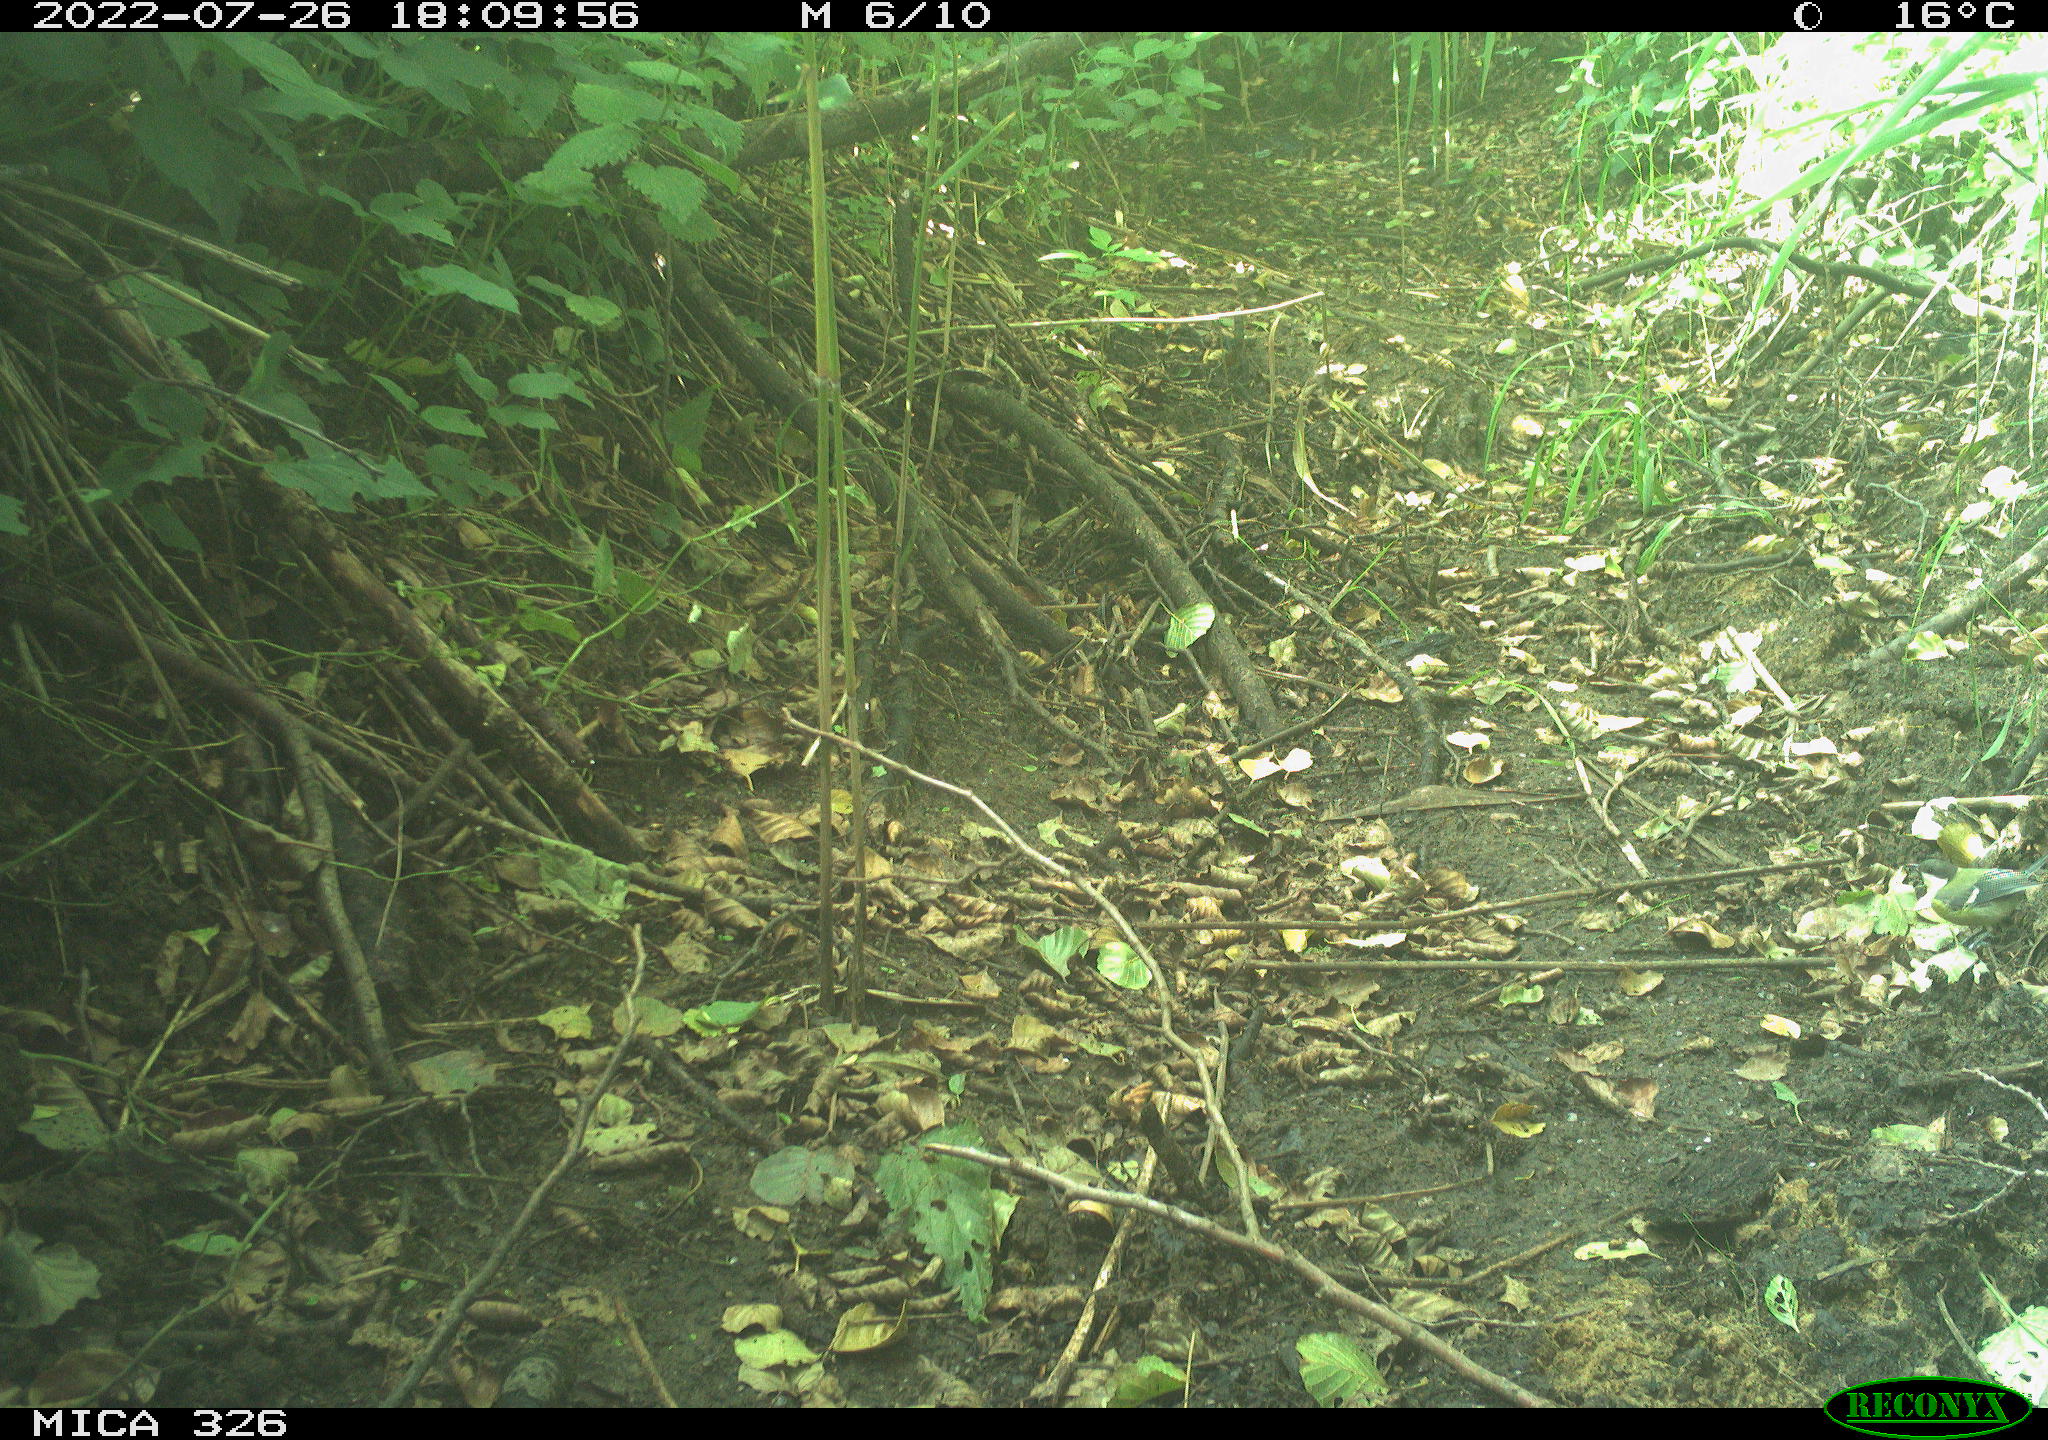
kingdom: Animalia
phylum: Chordata
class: Aves
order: Passeriformes
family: Paridae
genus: Parus
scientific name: Parus major
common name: Great tit
